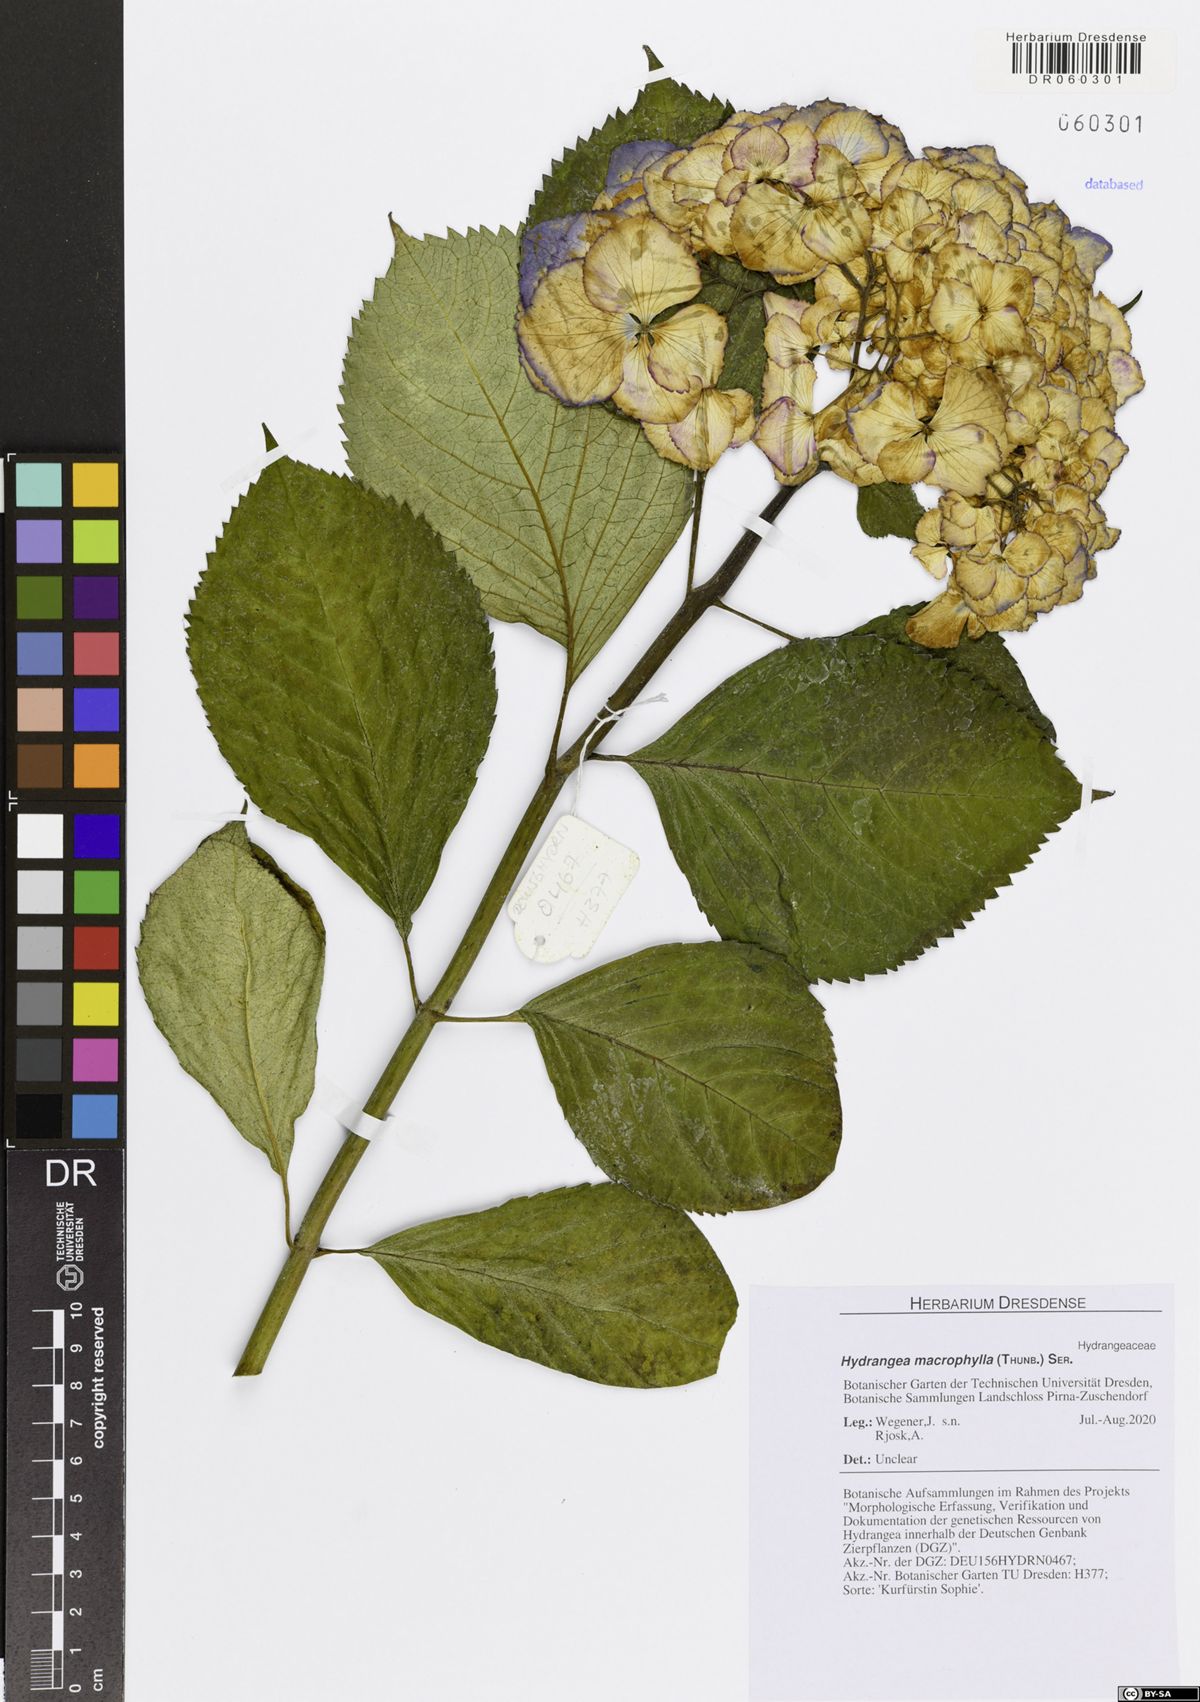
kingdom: Plantae
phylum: Tracheophyta
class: Magnoliopsida
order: Cornales
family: Hydrangeaceae
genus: Hydrangea
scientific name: Hydrangea macrophylla
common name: Hydrangea
